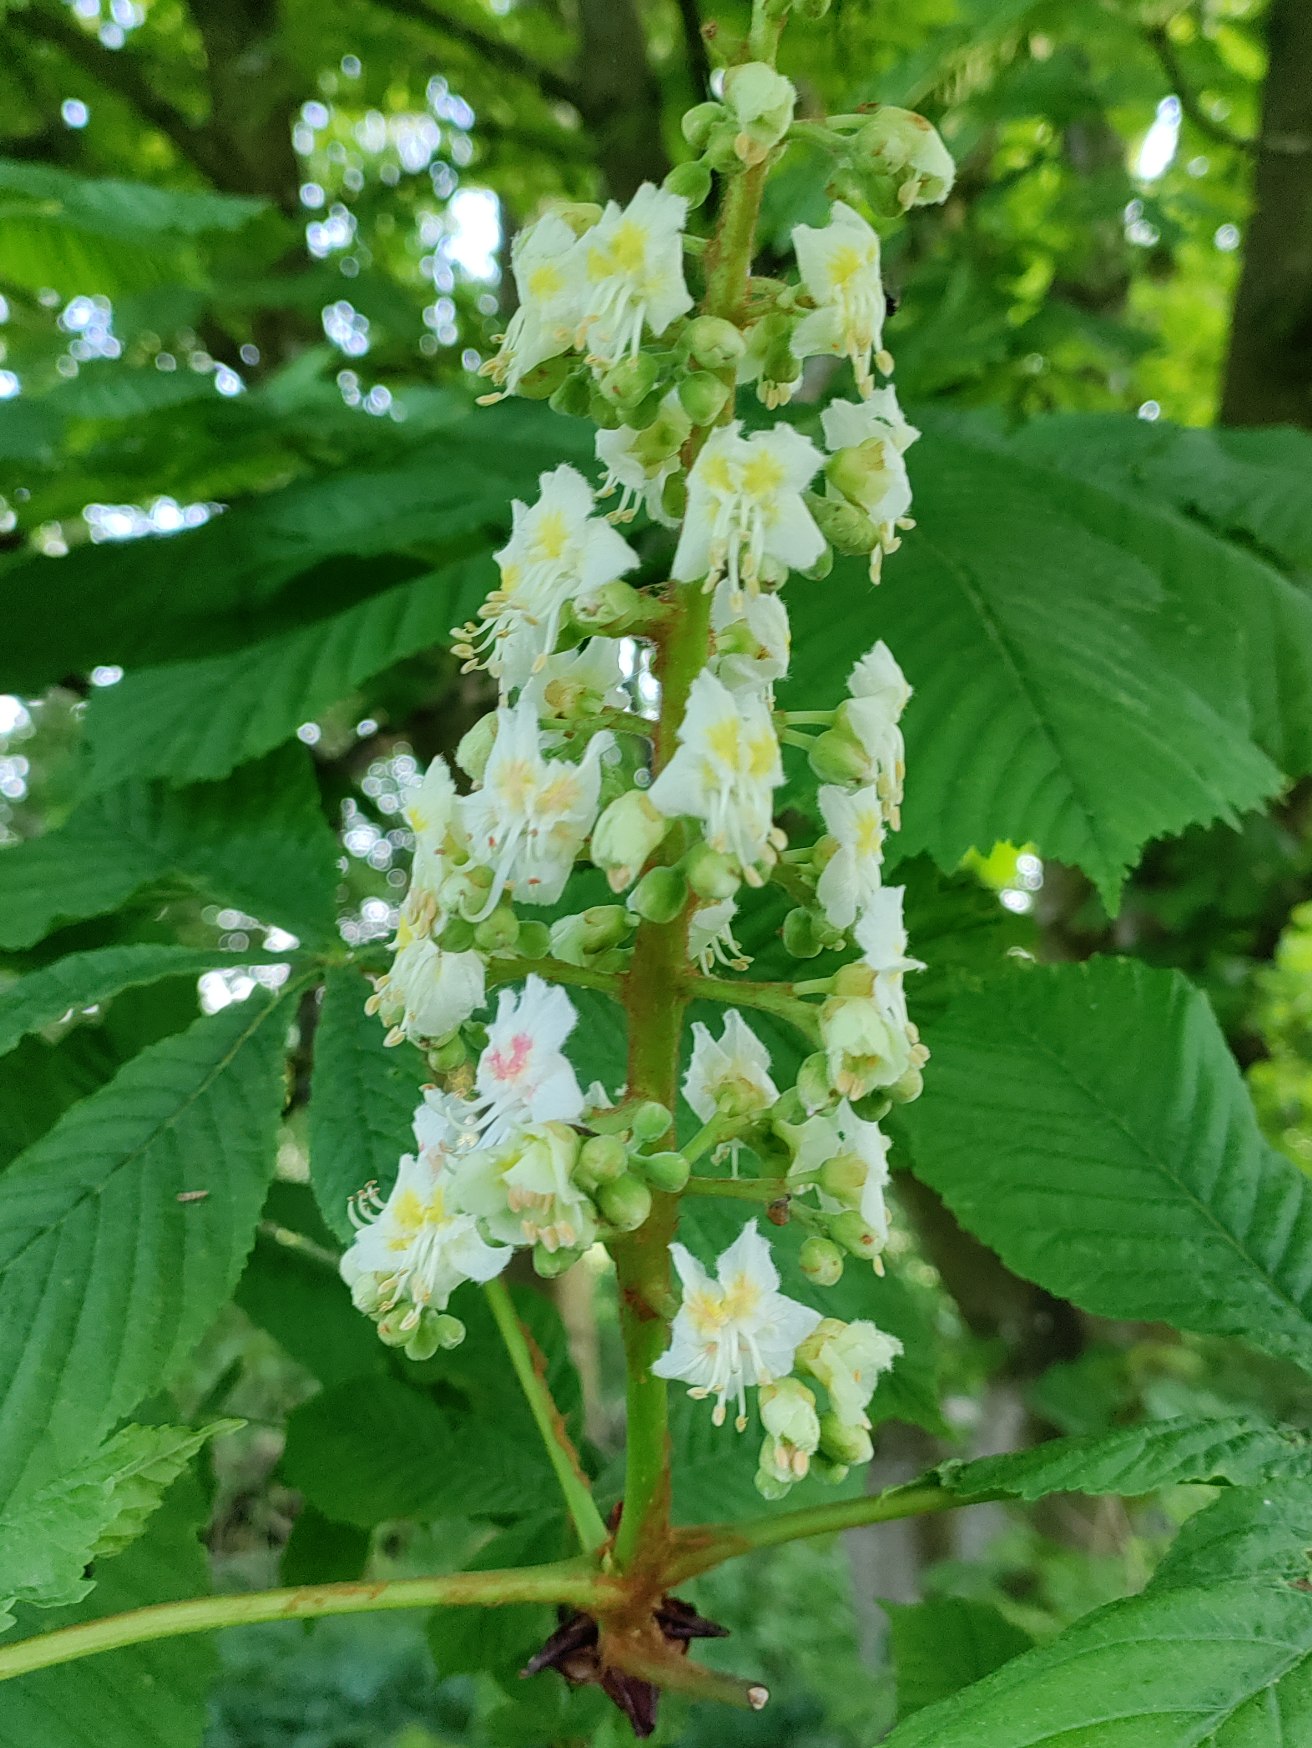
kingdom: Plantae
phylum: Tracheophyta
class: Magnoliopsida
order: Sapindales
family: Sapindaceae
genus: Aesculus
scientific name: Aesculus hippocastanum
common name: Hestekastanie
